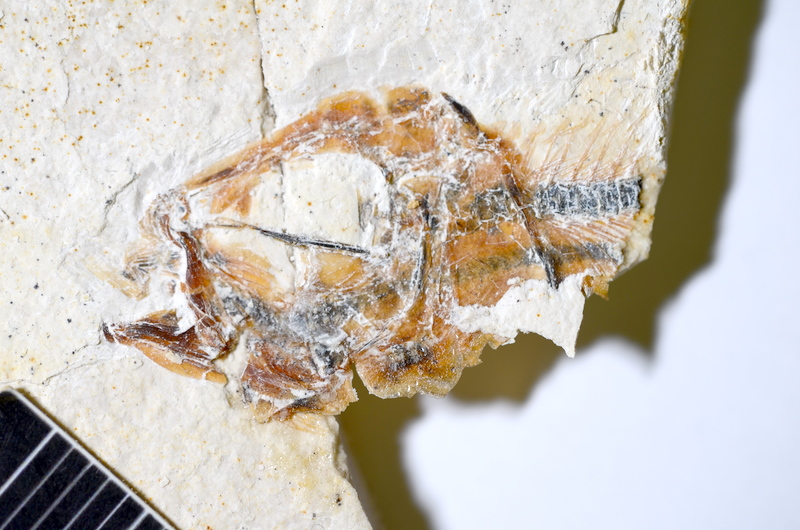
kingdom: Animalia
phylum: Chordata
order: Salmoniformes
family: Orthogonikleithridae
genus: Orthogonikleithrus
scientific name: Orthogonikleithrus hoelli
